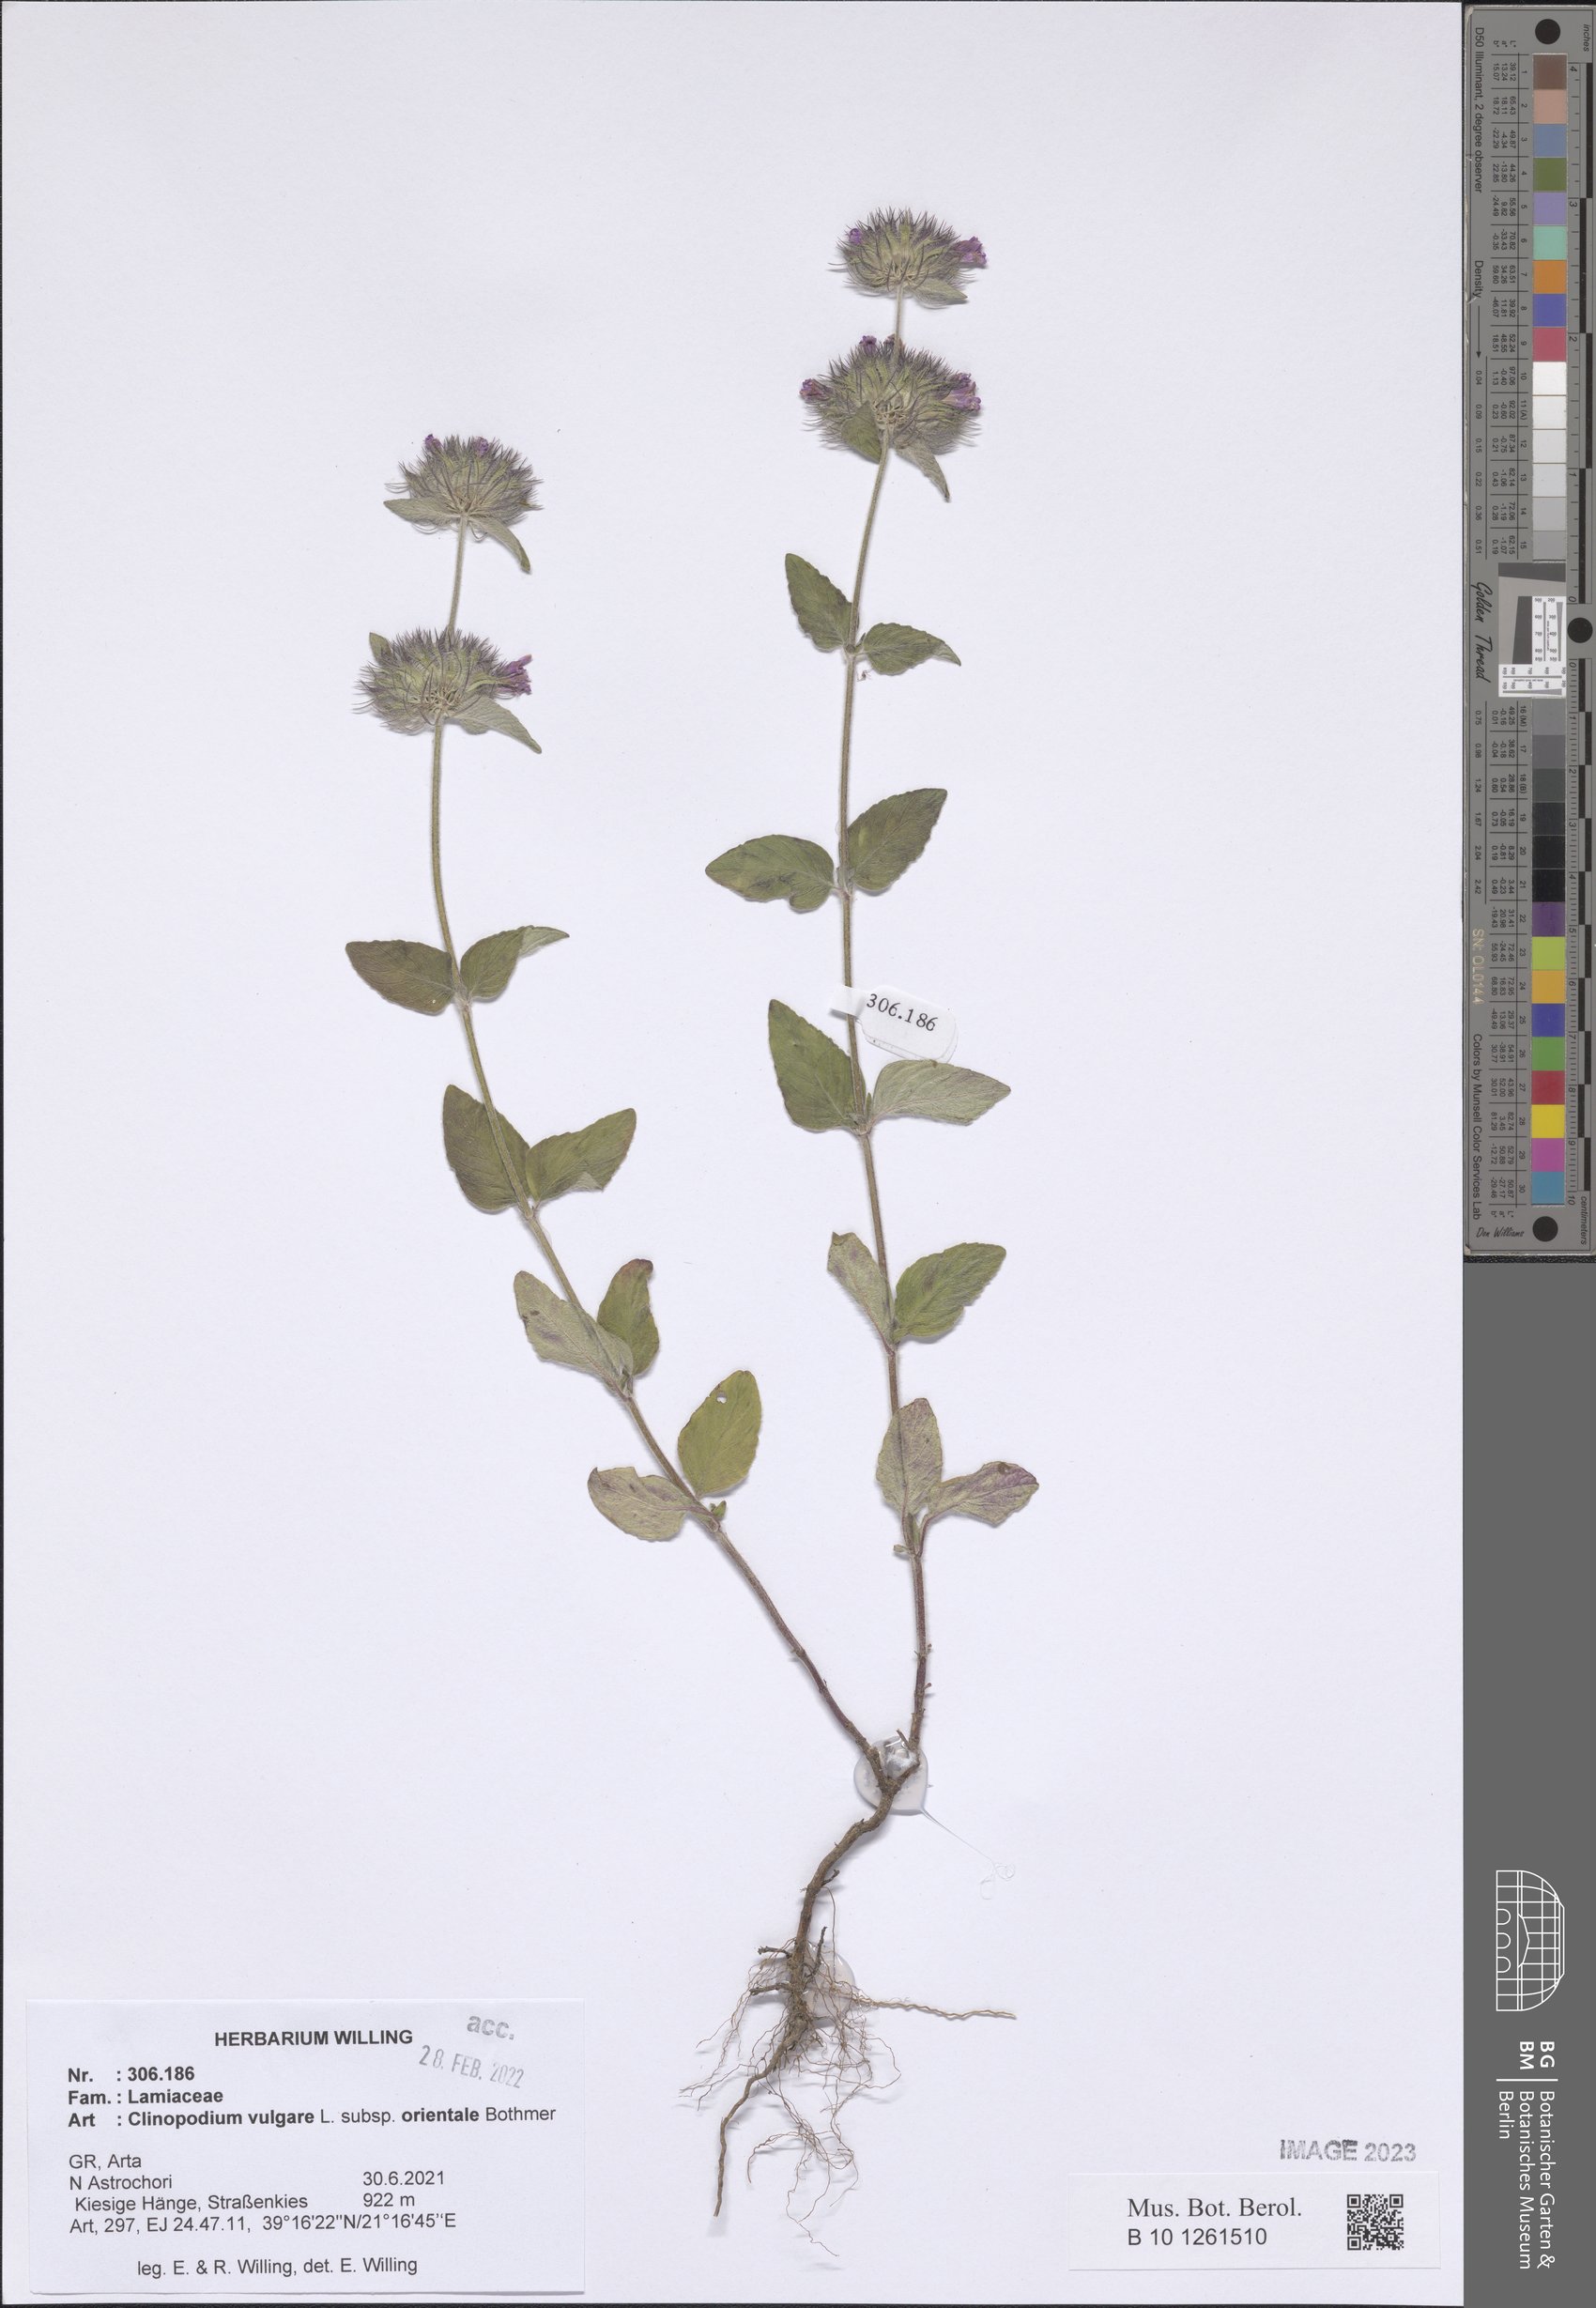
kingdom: Plantae
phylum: Tracheophyta
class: Magnoliopsida
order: Lamiales
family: Lamiaceae
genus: Clinopodium
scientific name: Clinopodium vulgare
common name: Wild basil
